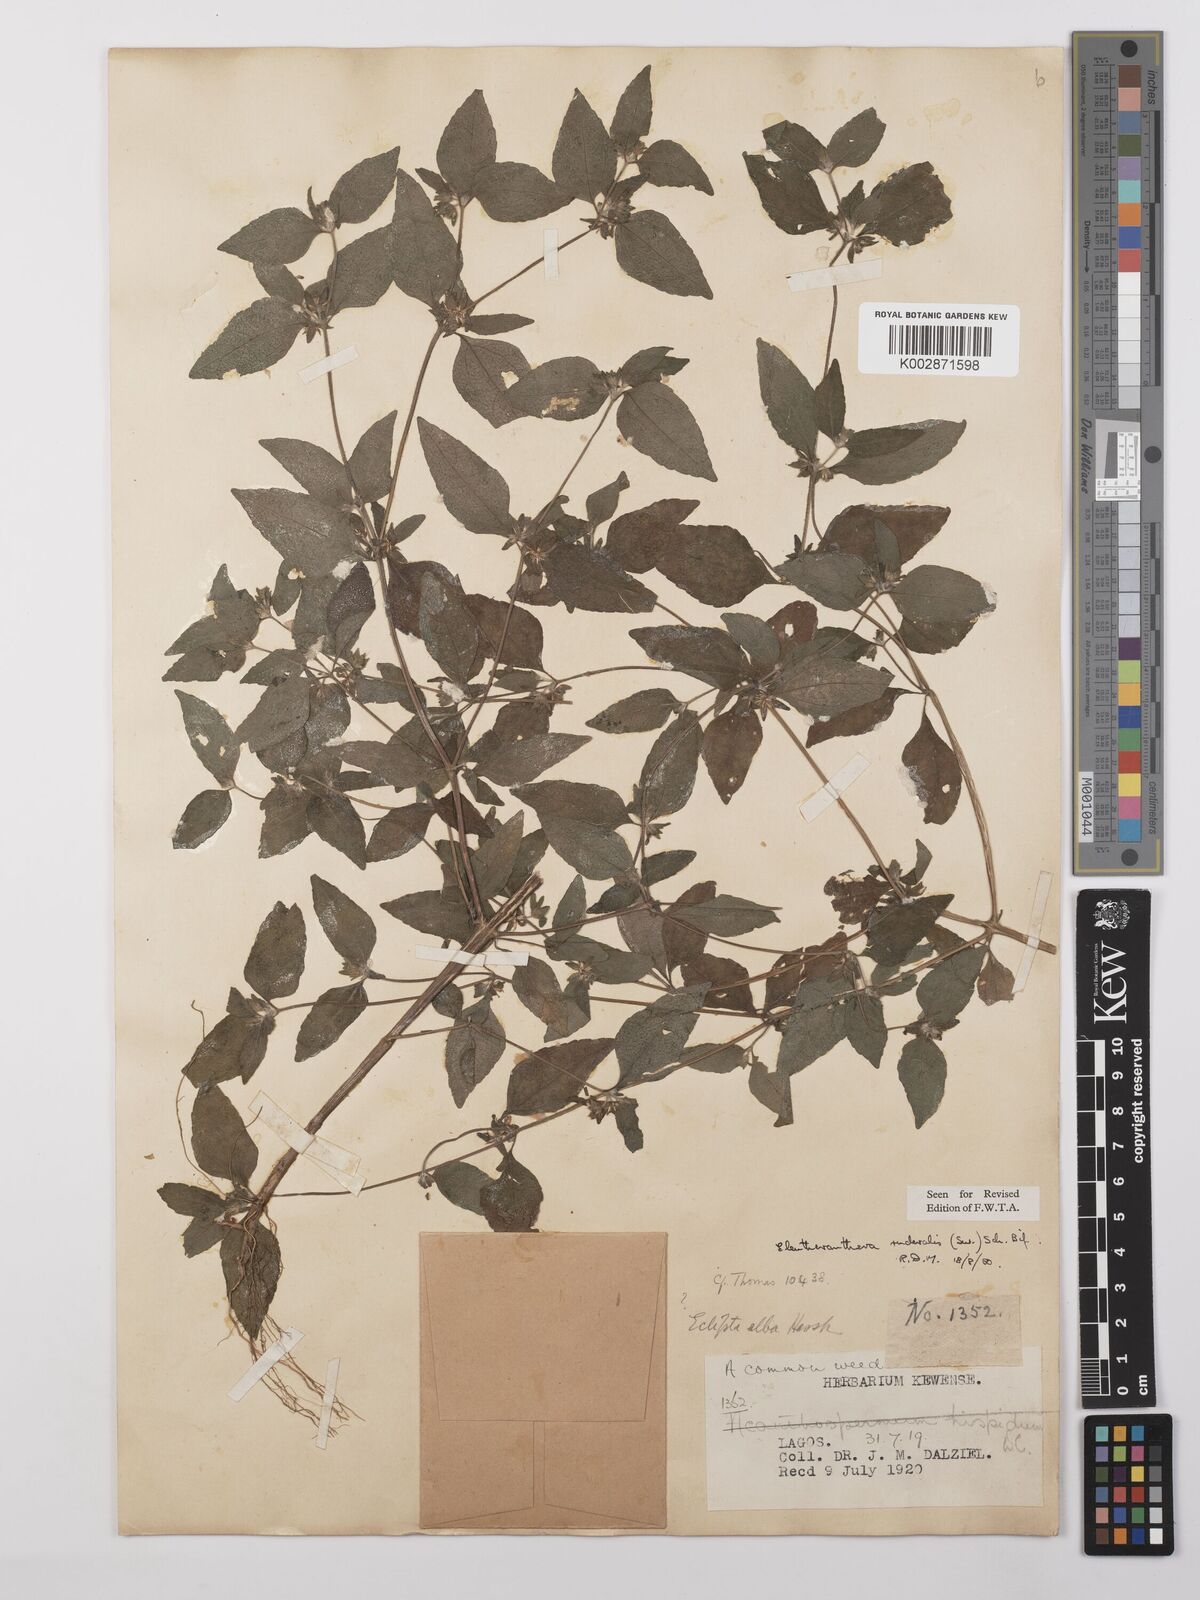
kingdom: Plantae
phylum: Tracheophyta
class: Magnoliopsida
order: Asterales
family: Asteraceae
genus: Eleutheranthera
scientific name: Eleutheranthera ruderalis
